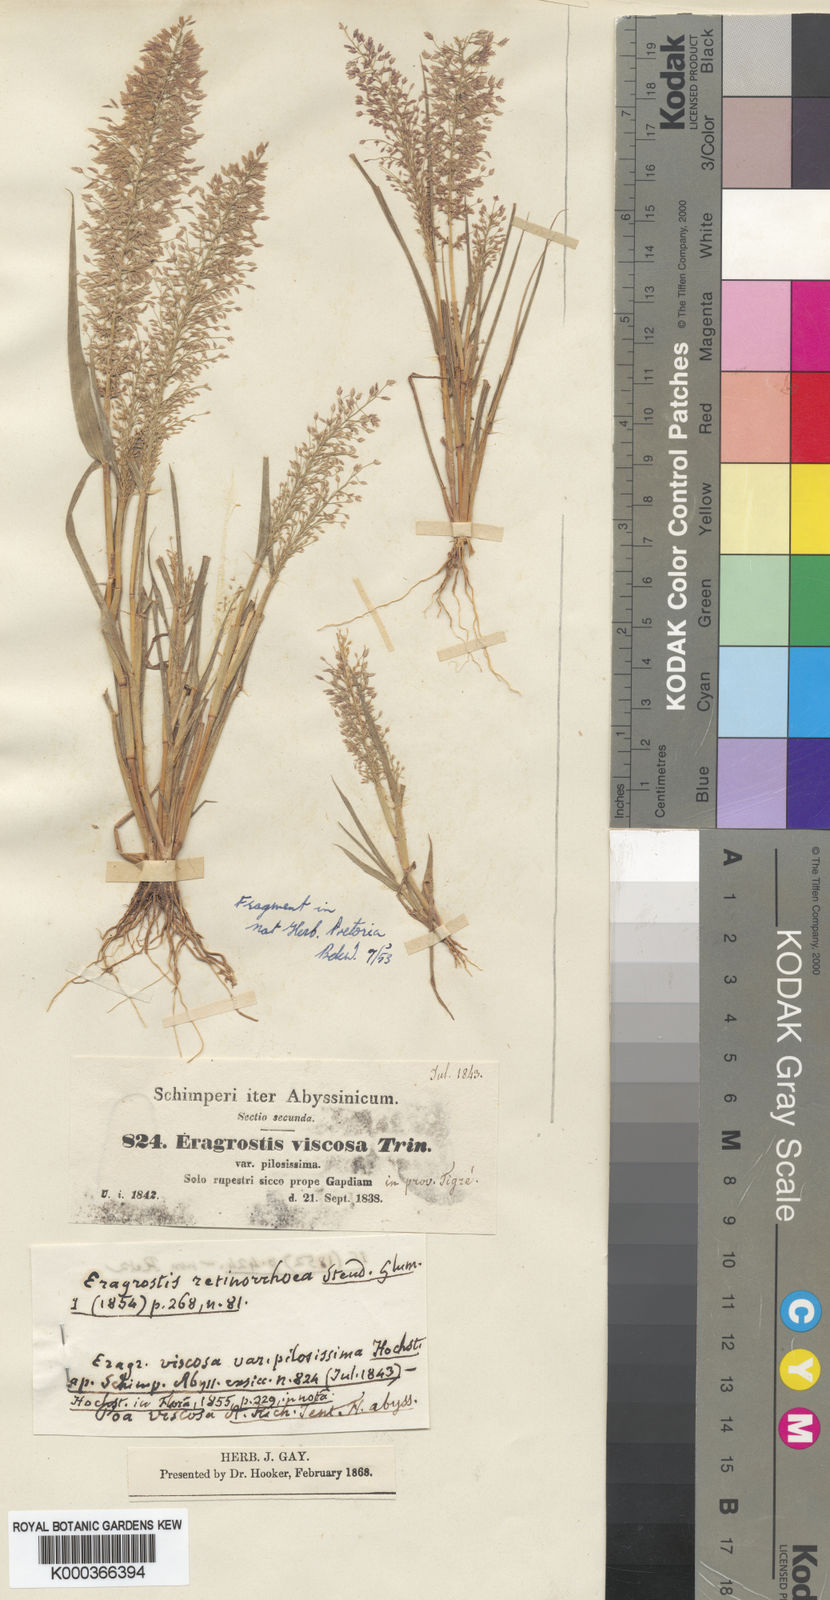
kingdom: Plantae
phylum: Tracheophyta
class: Liliopsida
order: Poales
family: Poaceae
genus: Eragrostis
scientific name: Eragrostis viscosa
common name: Sticky love grass
